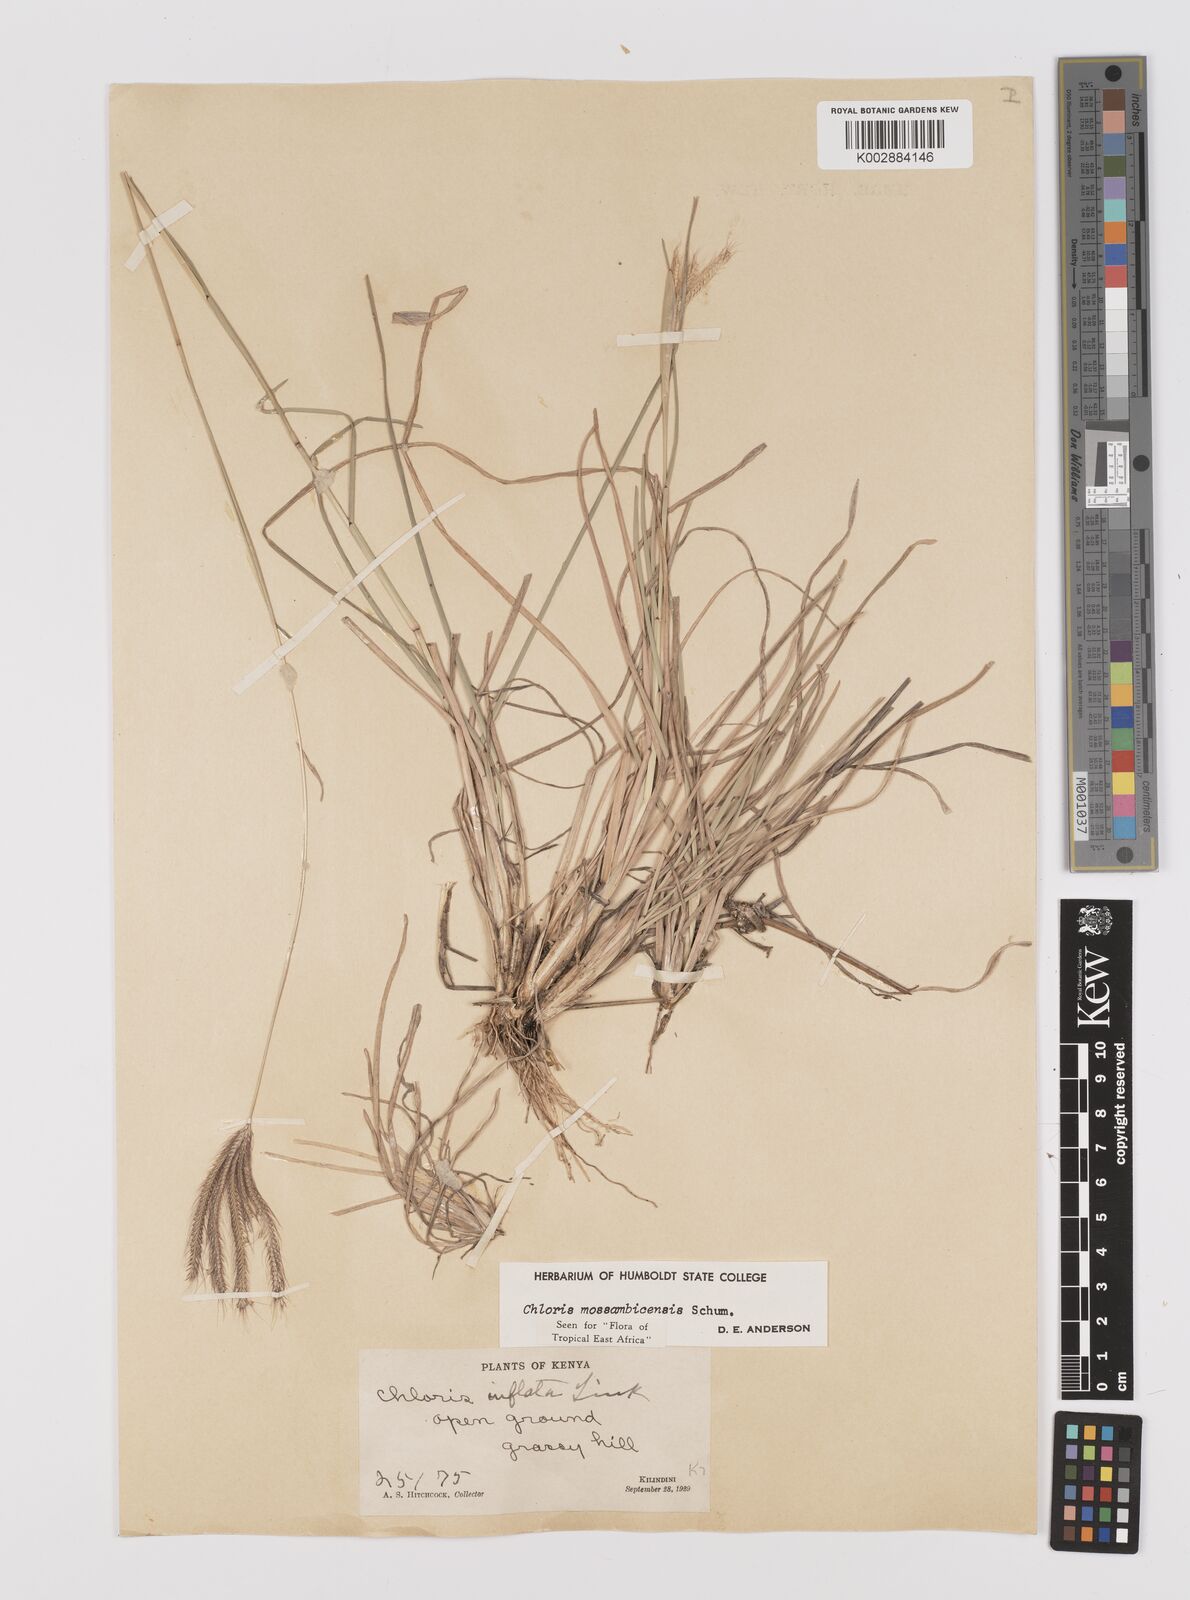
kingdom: Plantae
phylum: Tracheophyta
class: Liliopsida
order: Poales
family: Poaceae
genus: Chloris
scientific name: Chloris mossambicensis
